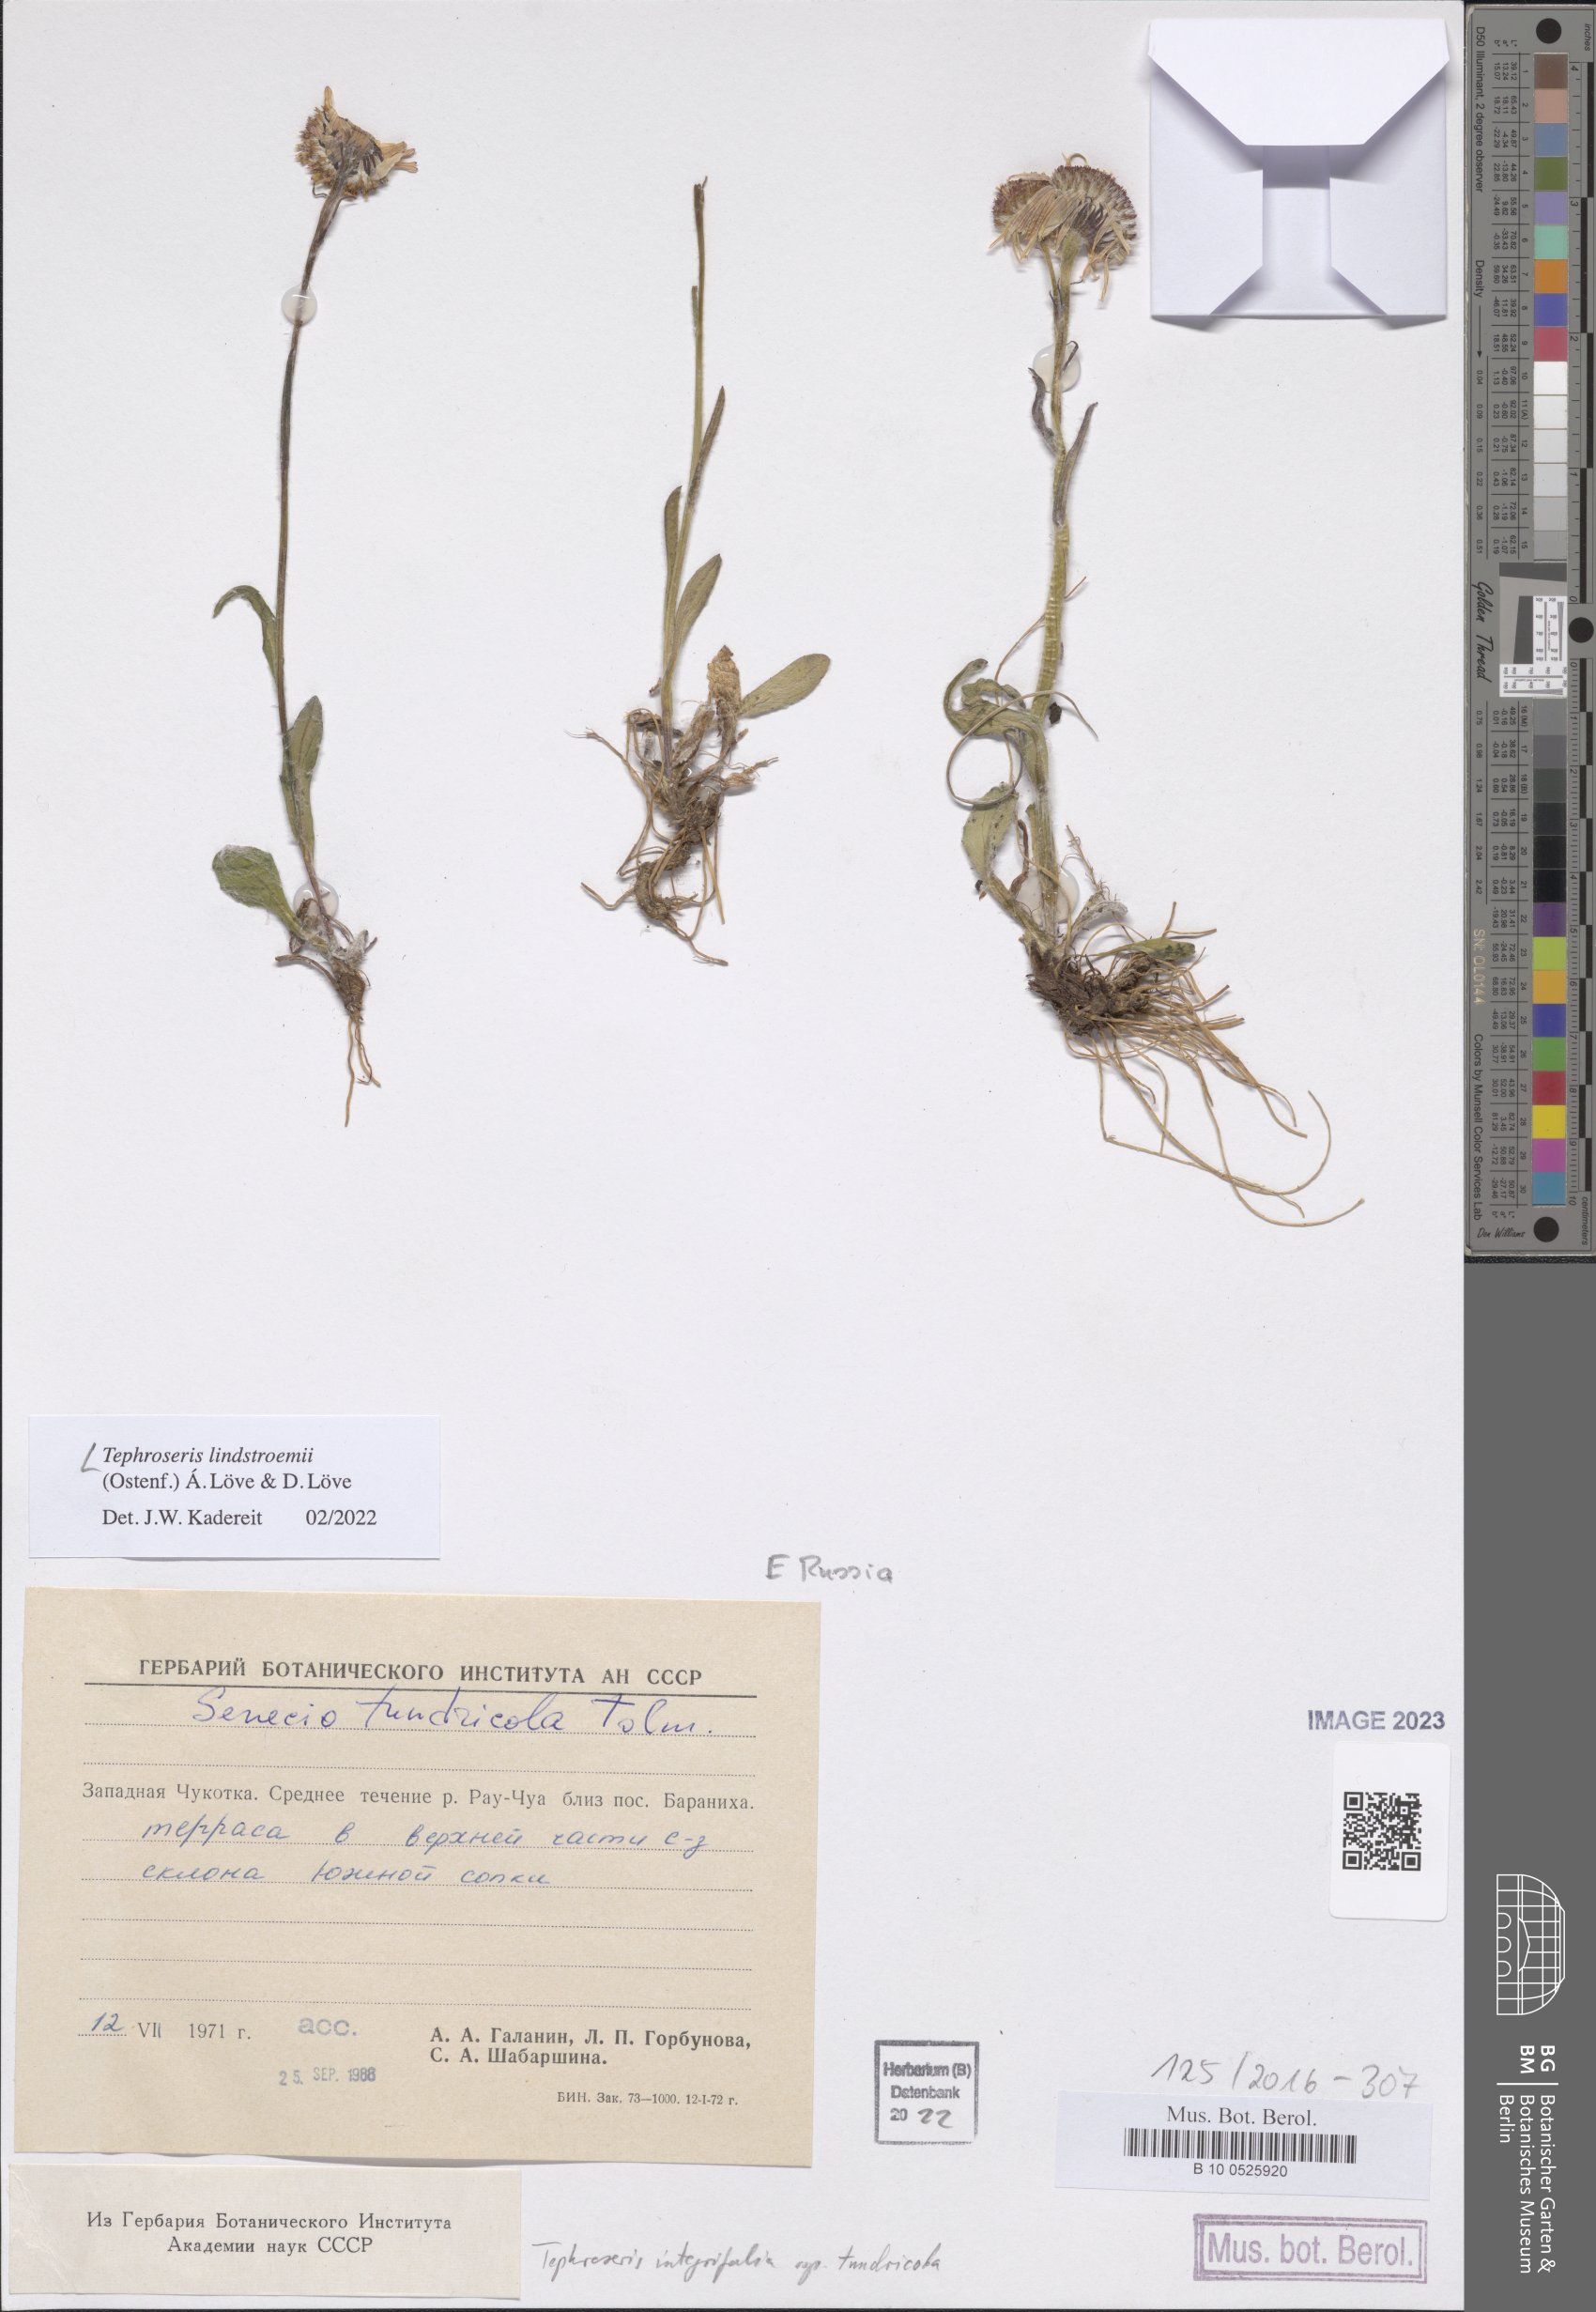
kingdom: Plantae
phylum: Tracheophyta
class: Magnoliopsida
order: Asterales
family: Asteraceae
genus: Tephroseris
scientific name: Tephroseris lindstroemii
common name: Lindström's groundsel
